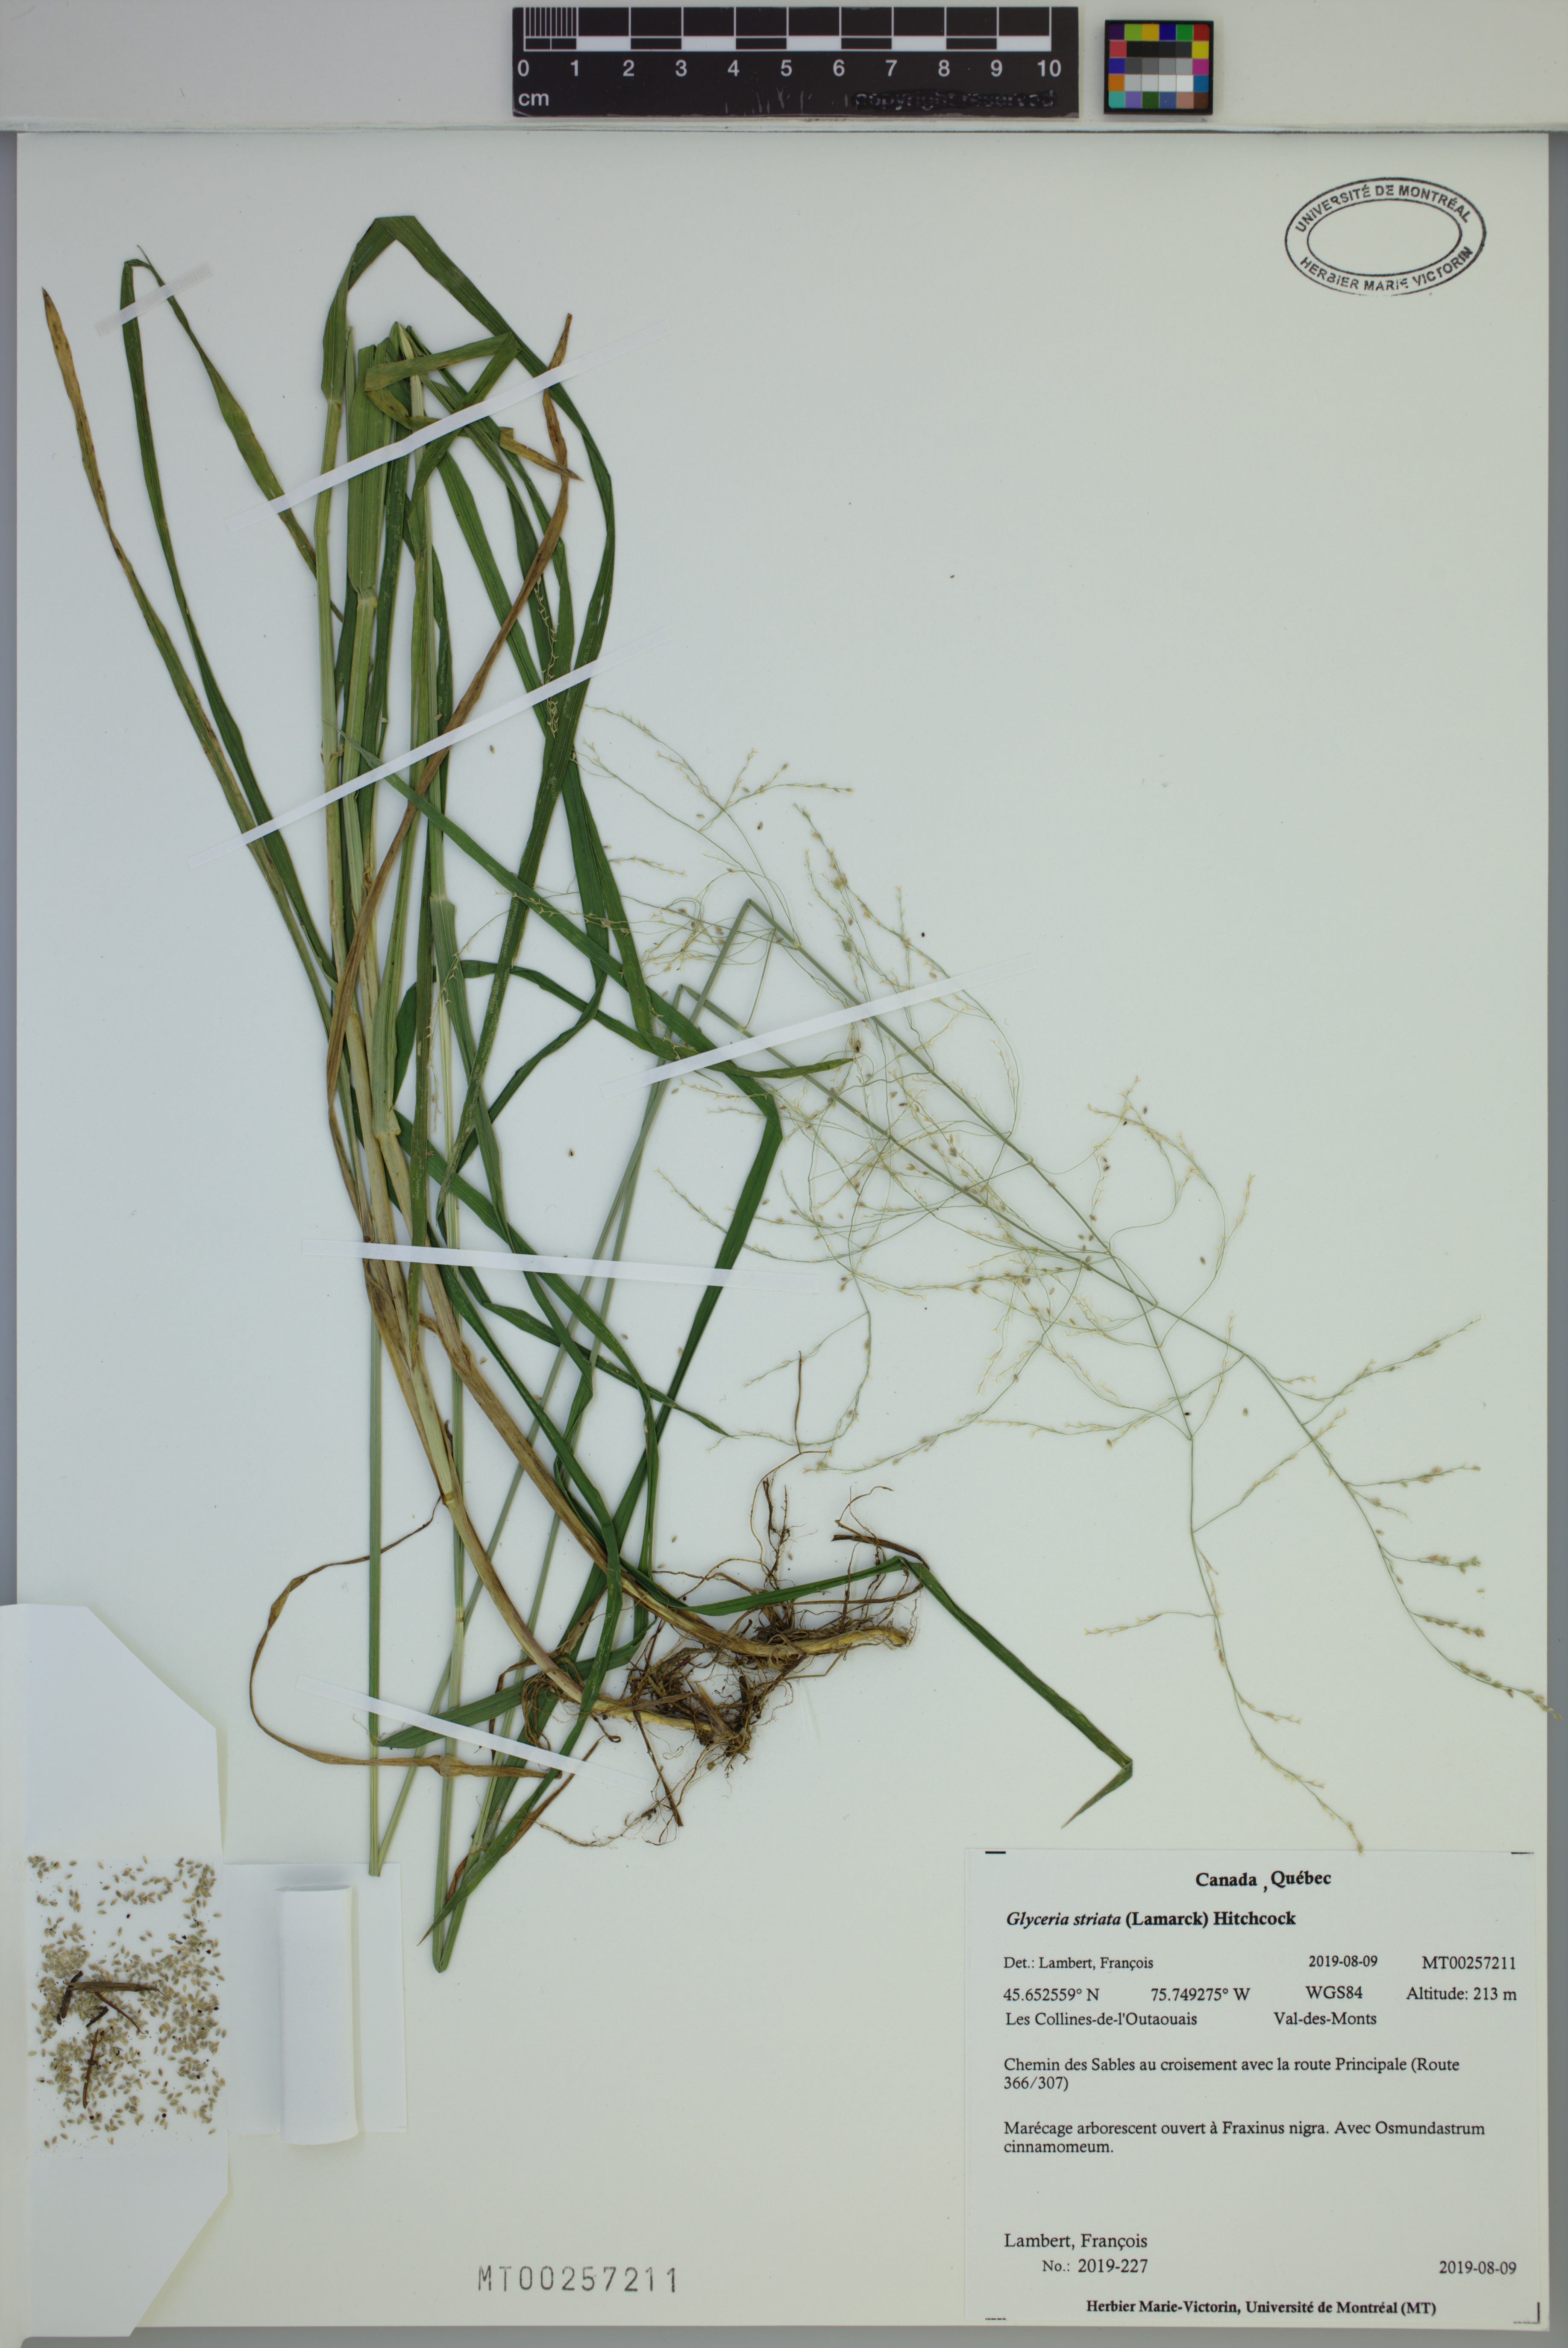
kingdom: Plantae
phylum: Tracheophyta
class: Liliopsida
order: Poales
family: Poaceae
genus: Glyceria
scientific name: Glyceria striata
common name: Fowl manna grass
